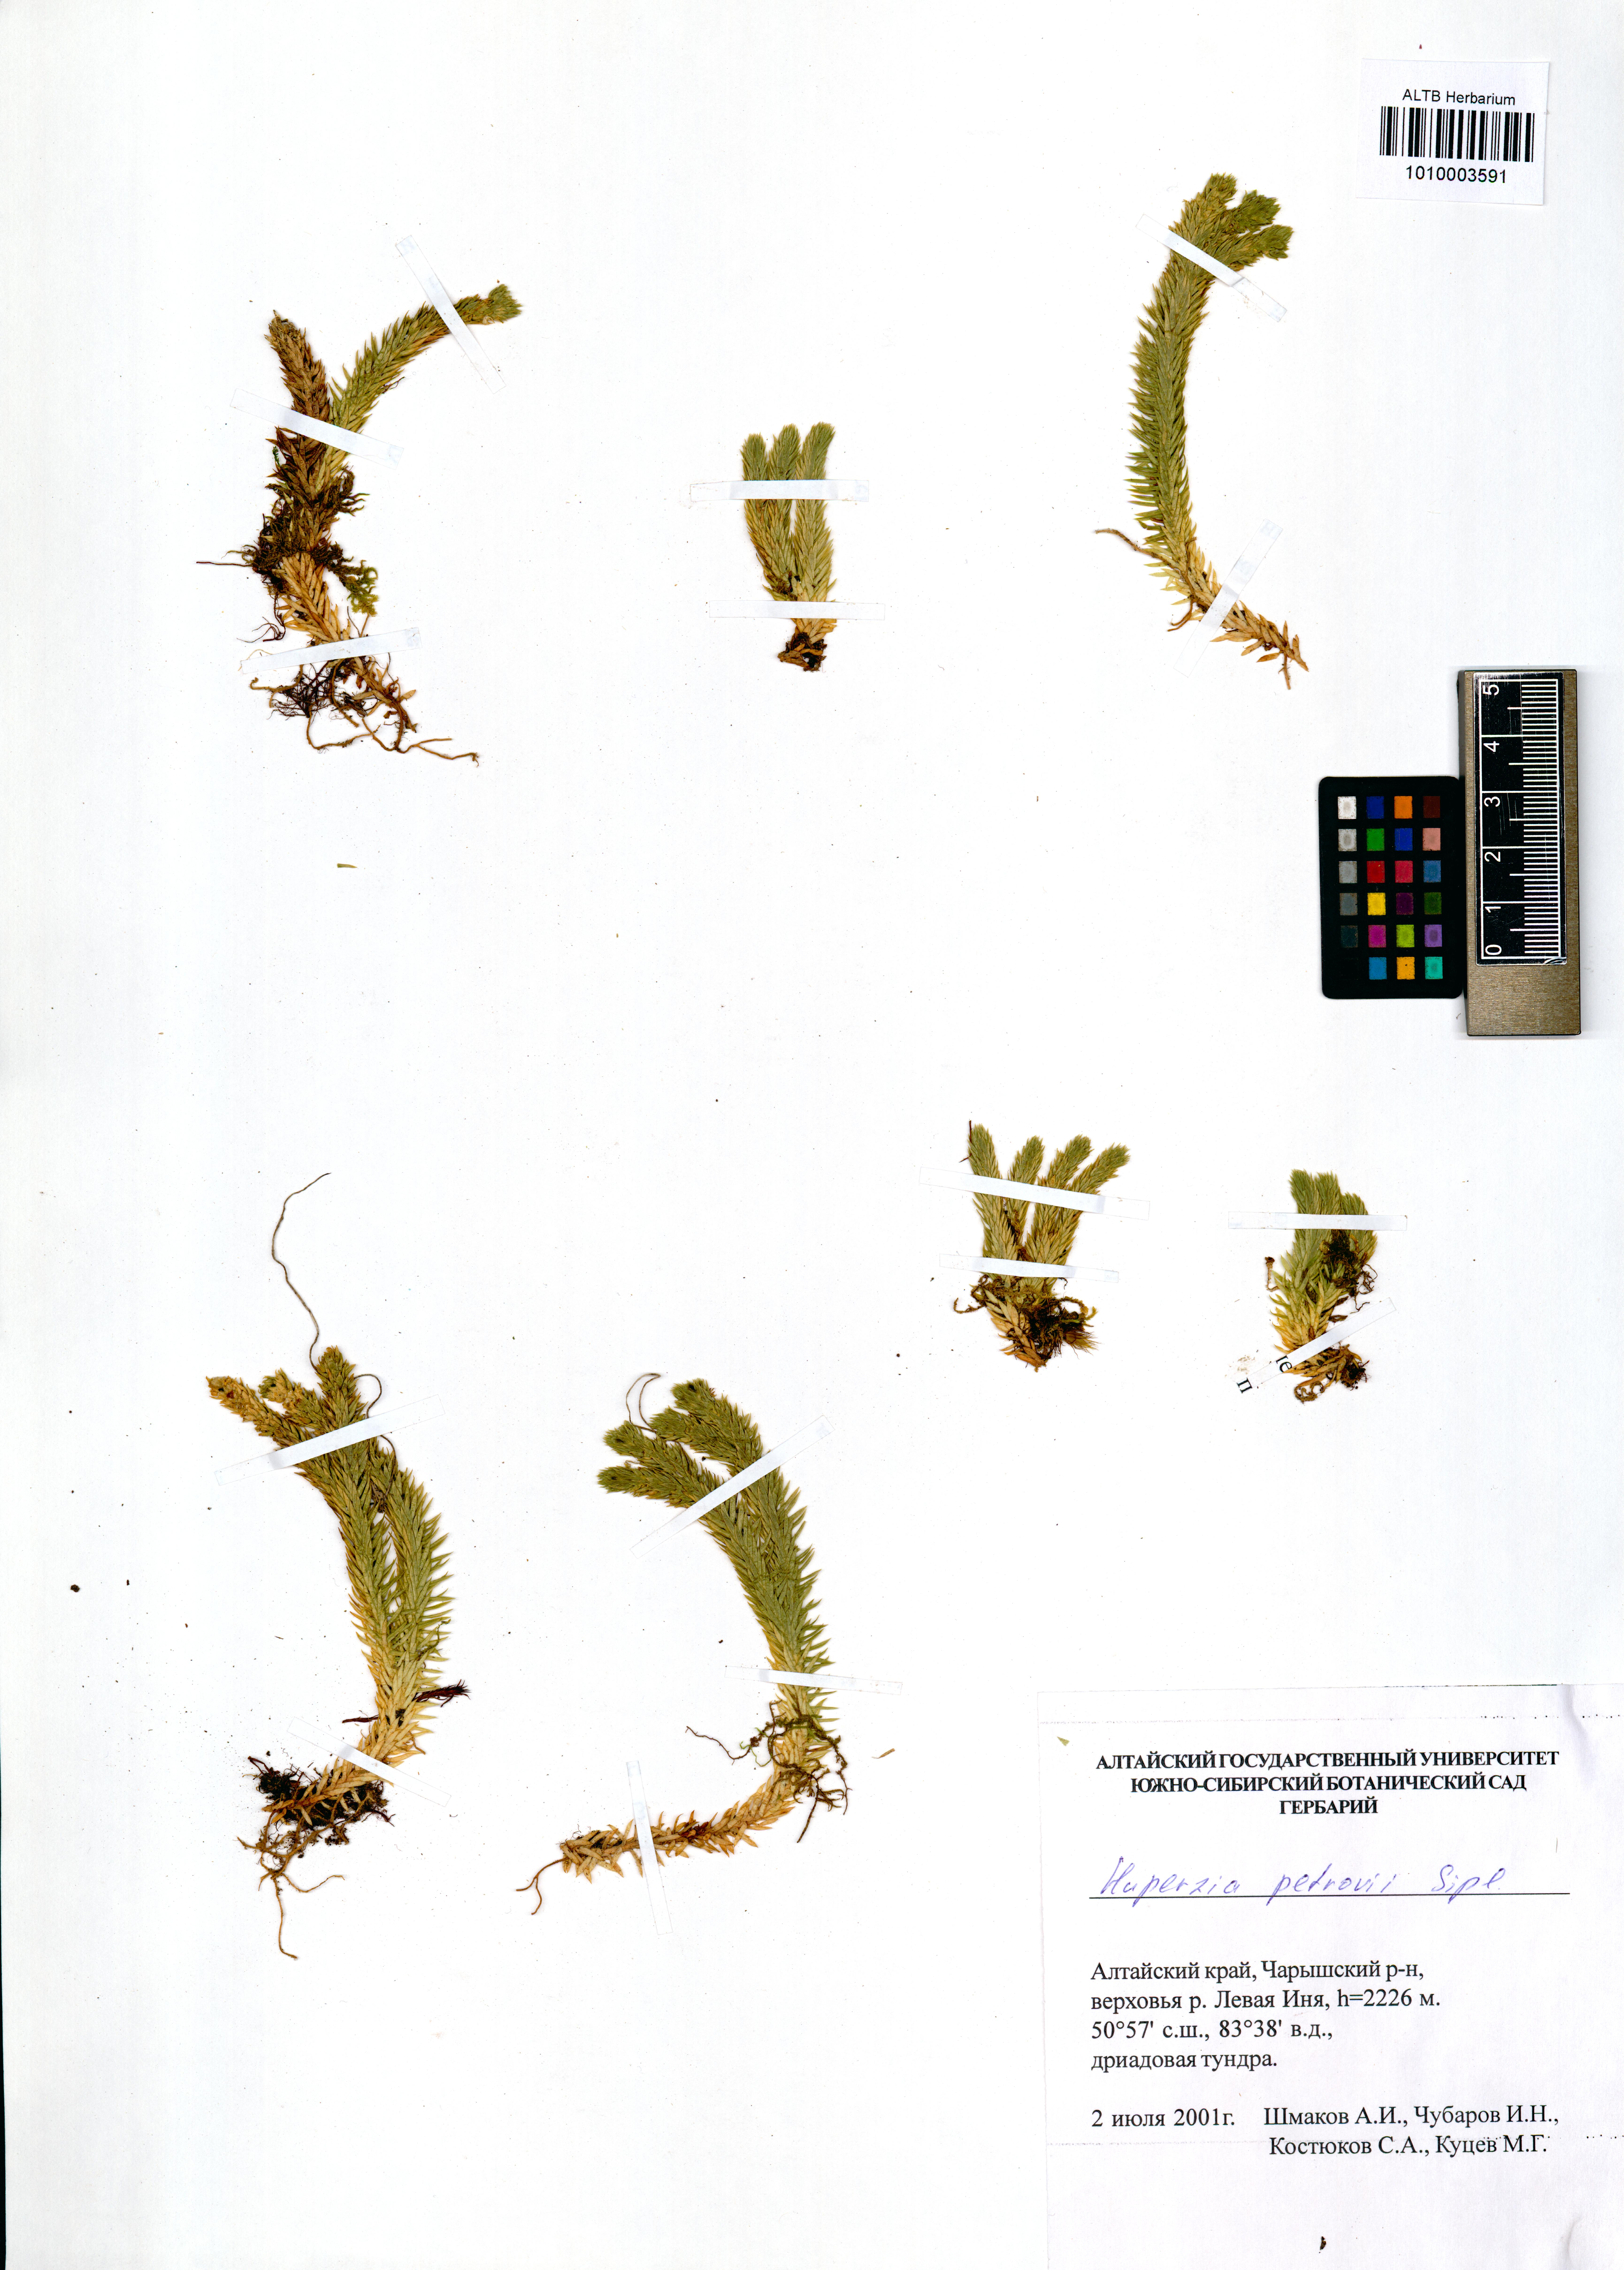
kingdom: Plantae
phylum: Tracheophyta
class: Lycopodiopsida
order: Lycopodiales
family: Lycopodiaceae
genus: Huperzia
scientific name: Huperzia selago
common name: Northern firmoss
